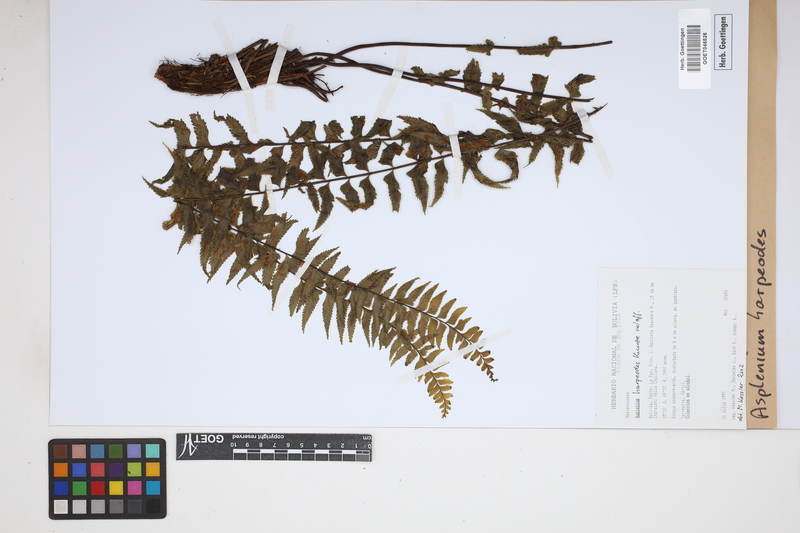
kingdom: Plantae
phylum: Tracheophyta
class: Polypodiopsida
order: Polypodiales
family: Aspleniaceae
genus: Asplenium
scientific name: Asplenium harpeodes
